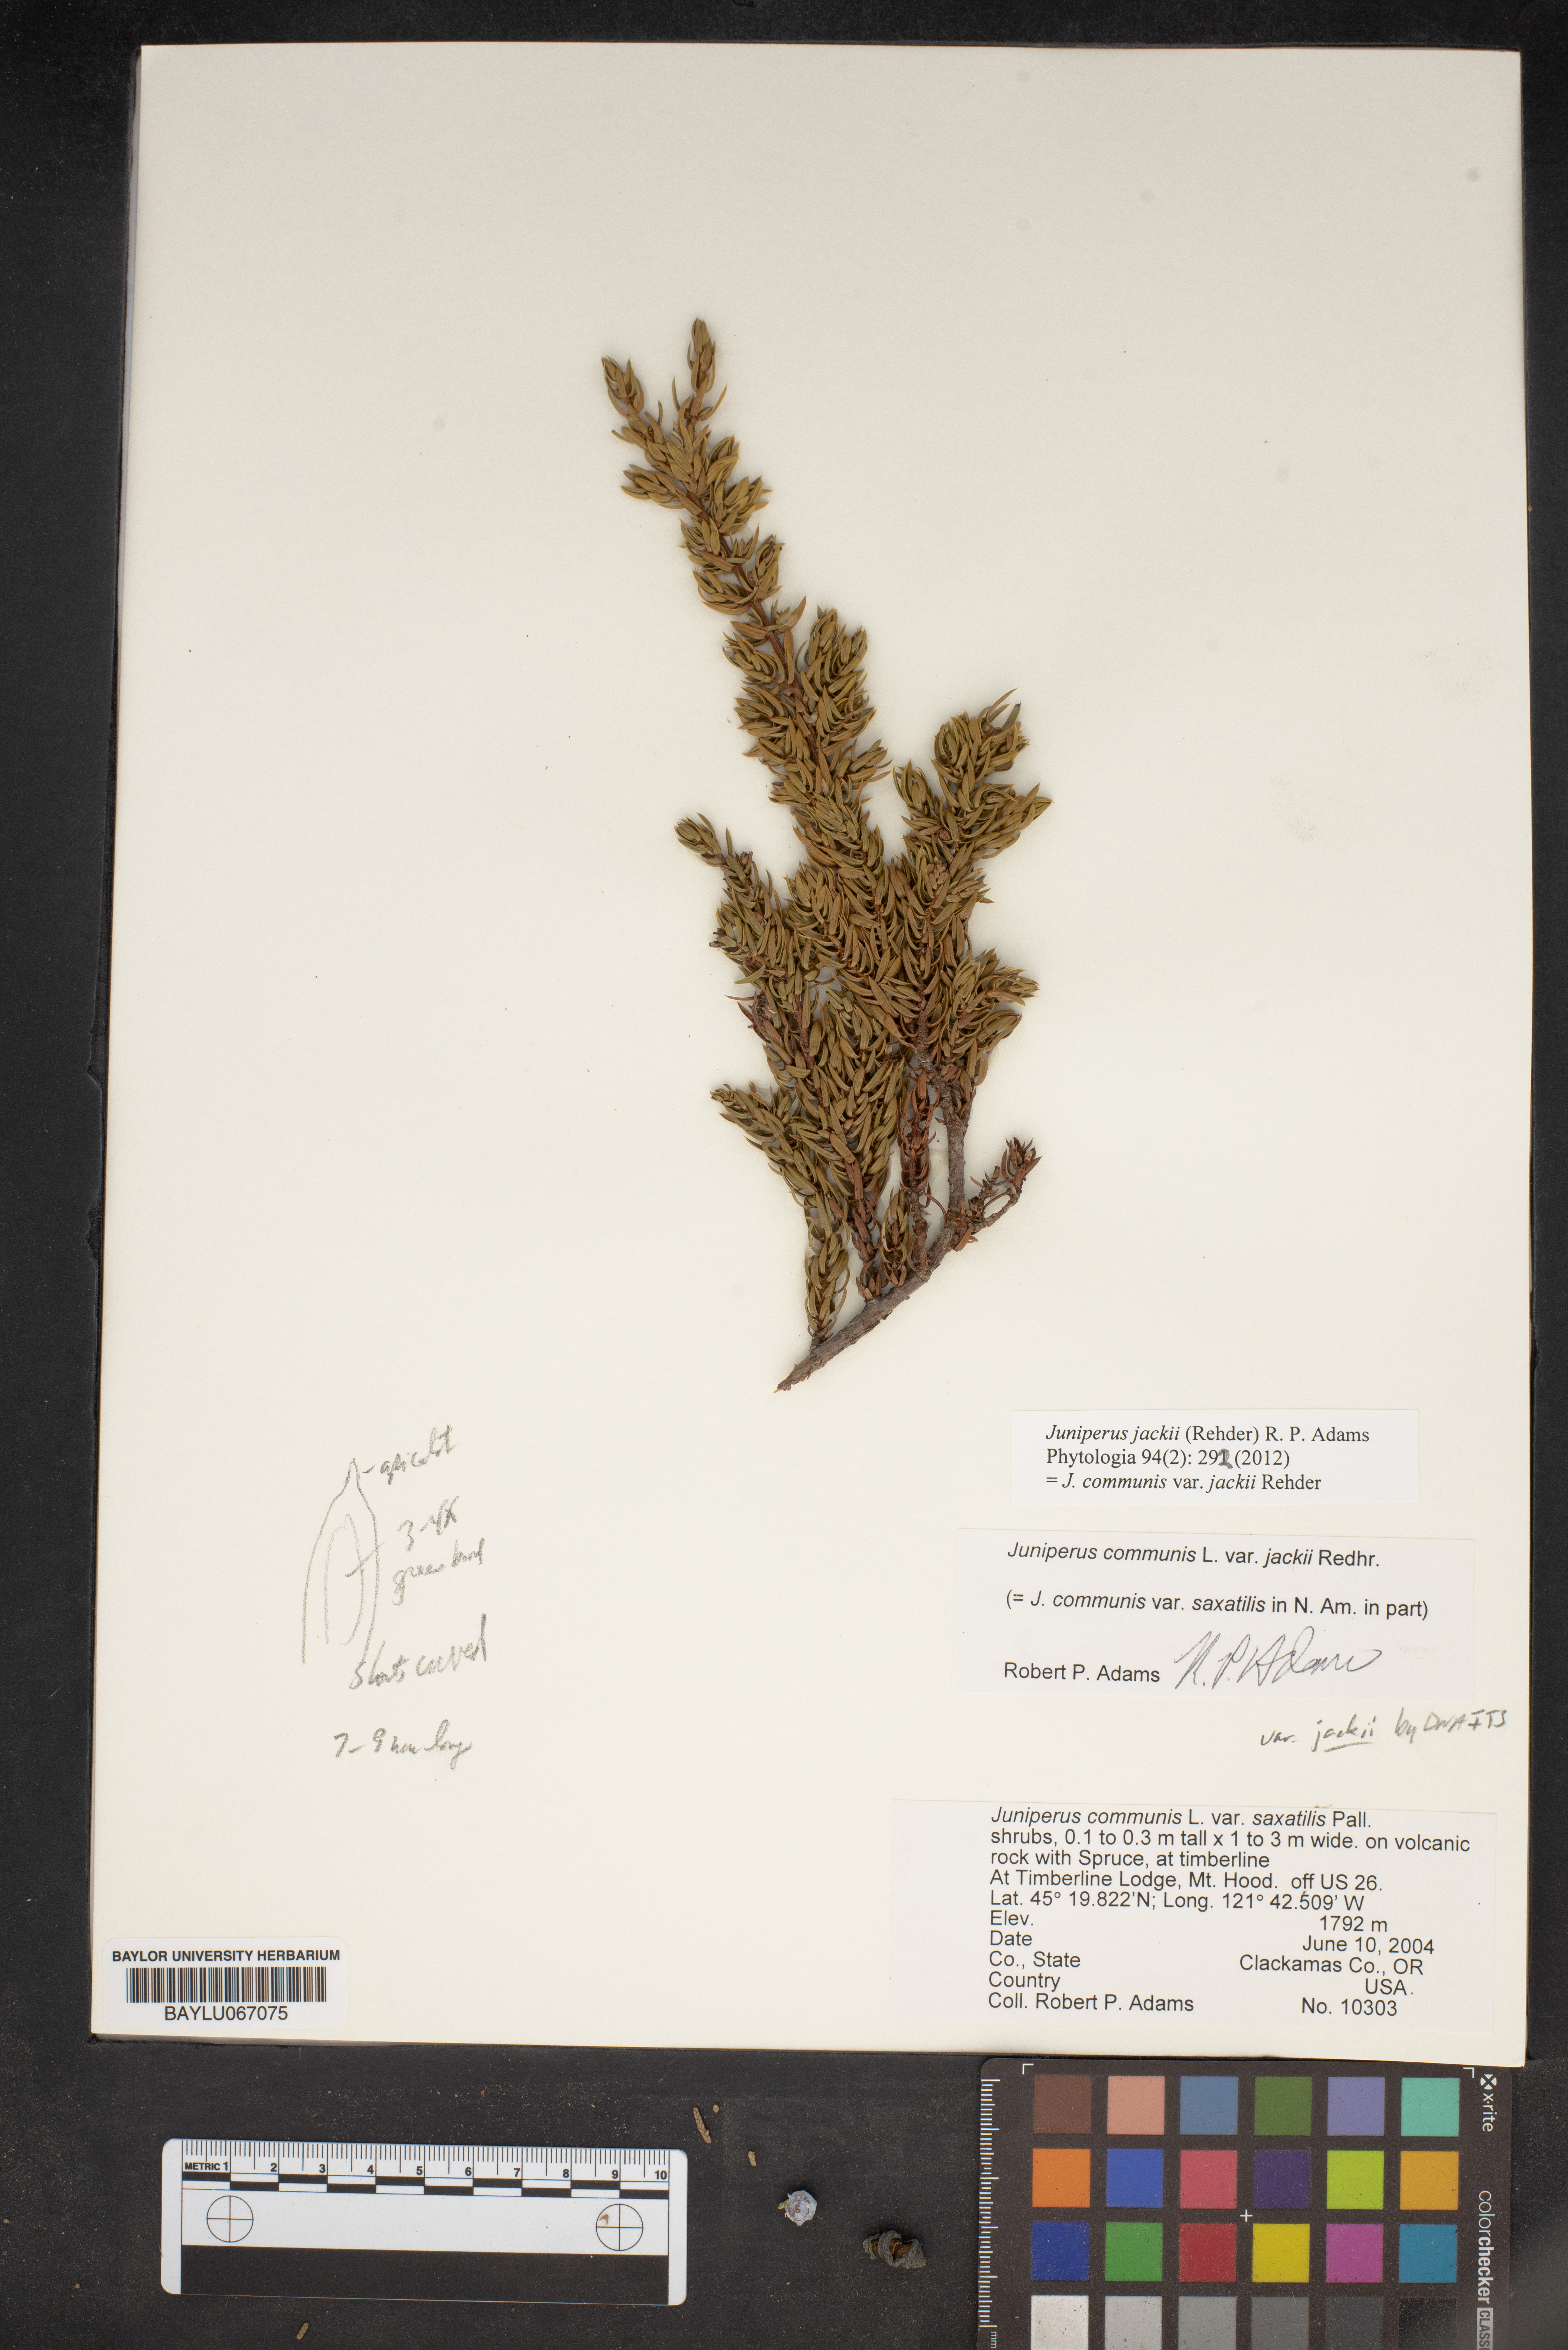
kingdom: Plantae
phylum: Tracheophyta
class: Pinopsida
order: Pinales
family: Cupressaceae
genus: Juniperus
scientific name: Juniperus communis
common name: Common juniper
